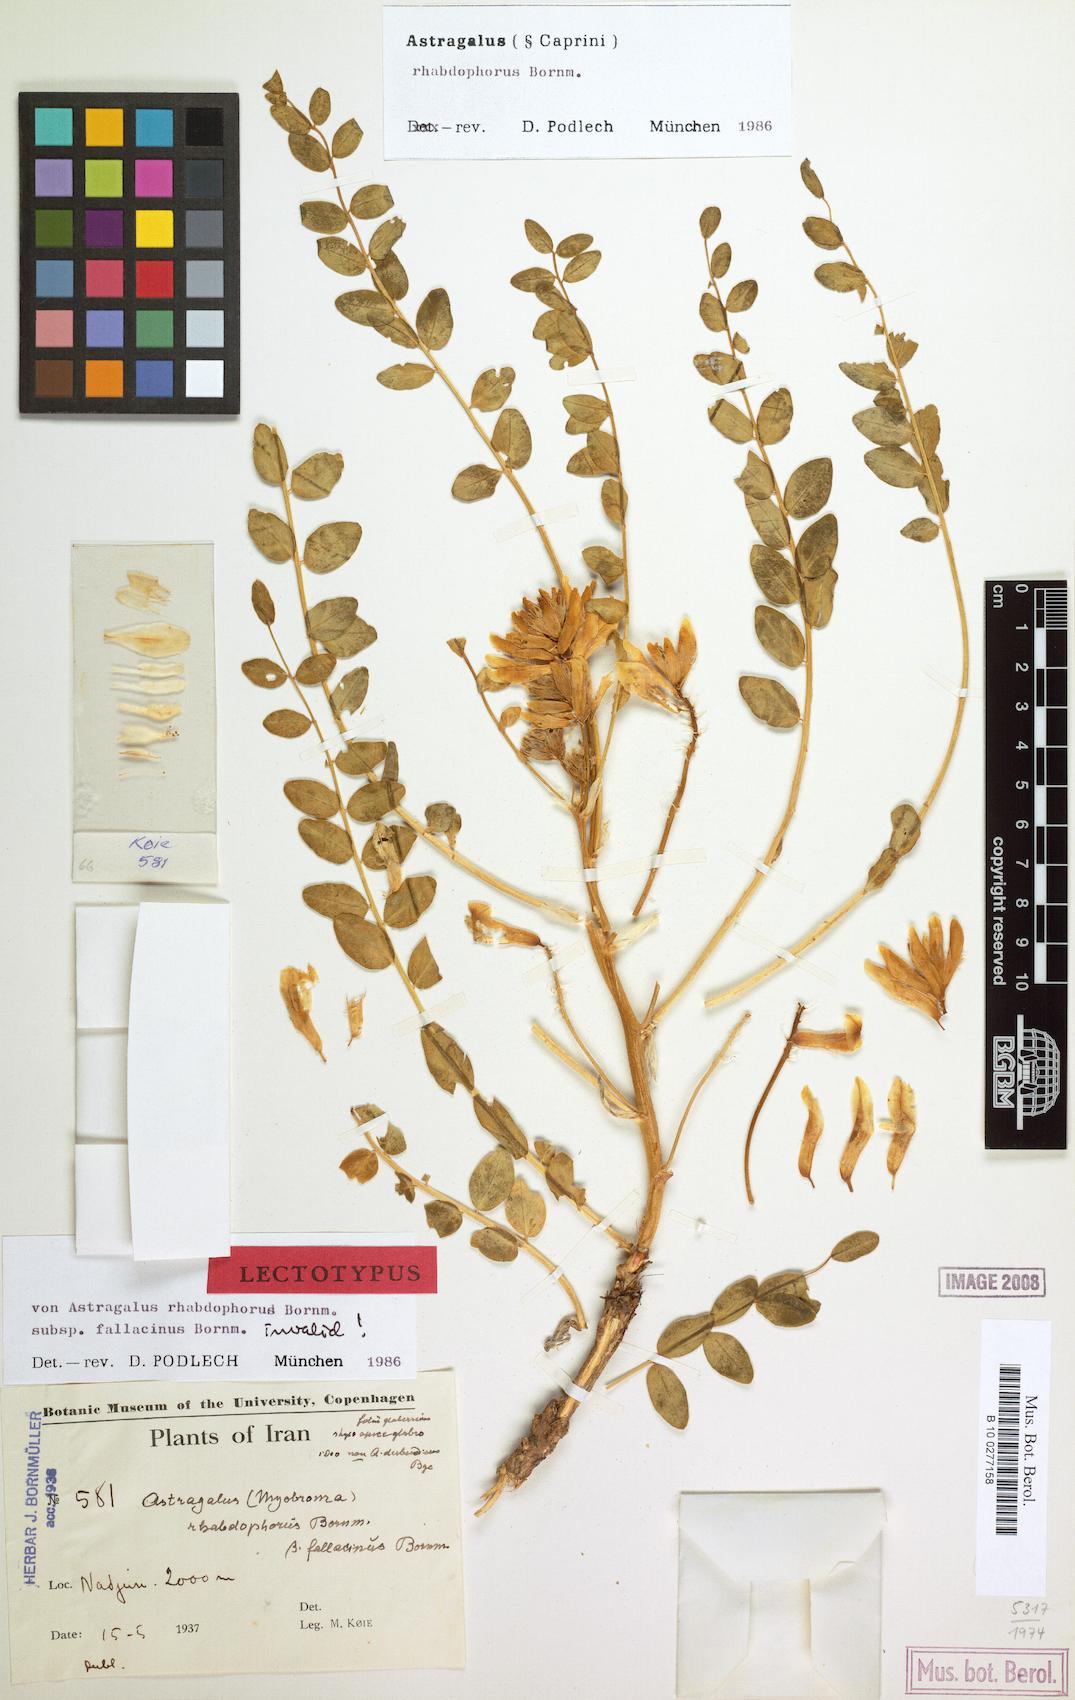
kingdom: Plantae
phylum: Tracheophyta
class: Magnoliopsida
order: Fabales
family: Fabaceae
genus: Astragalus
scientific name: Astragalus rhabdophorus
